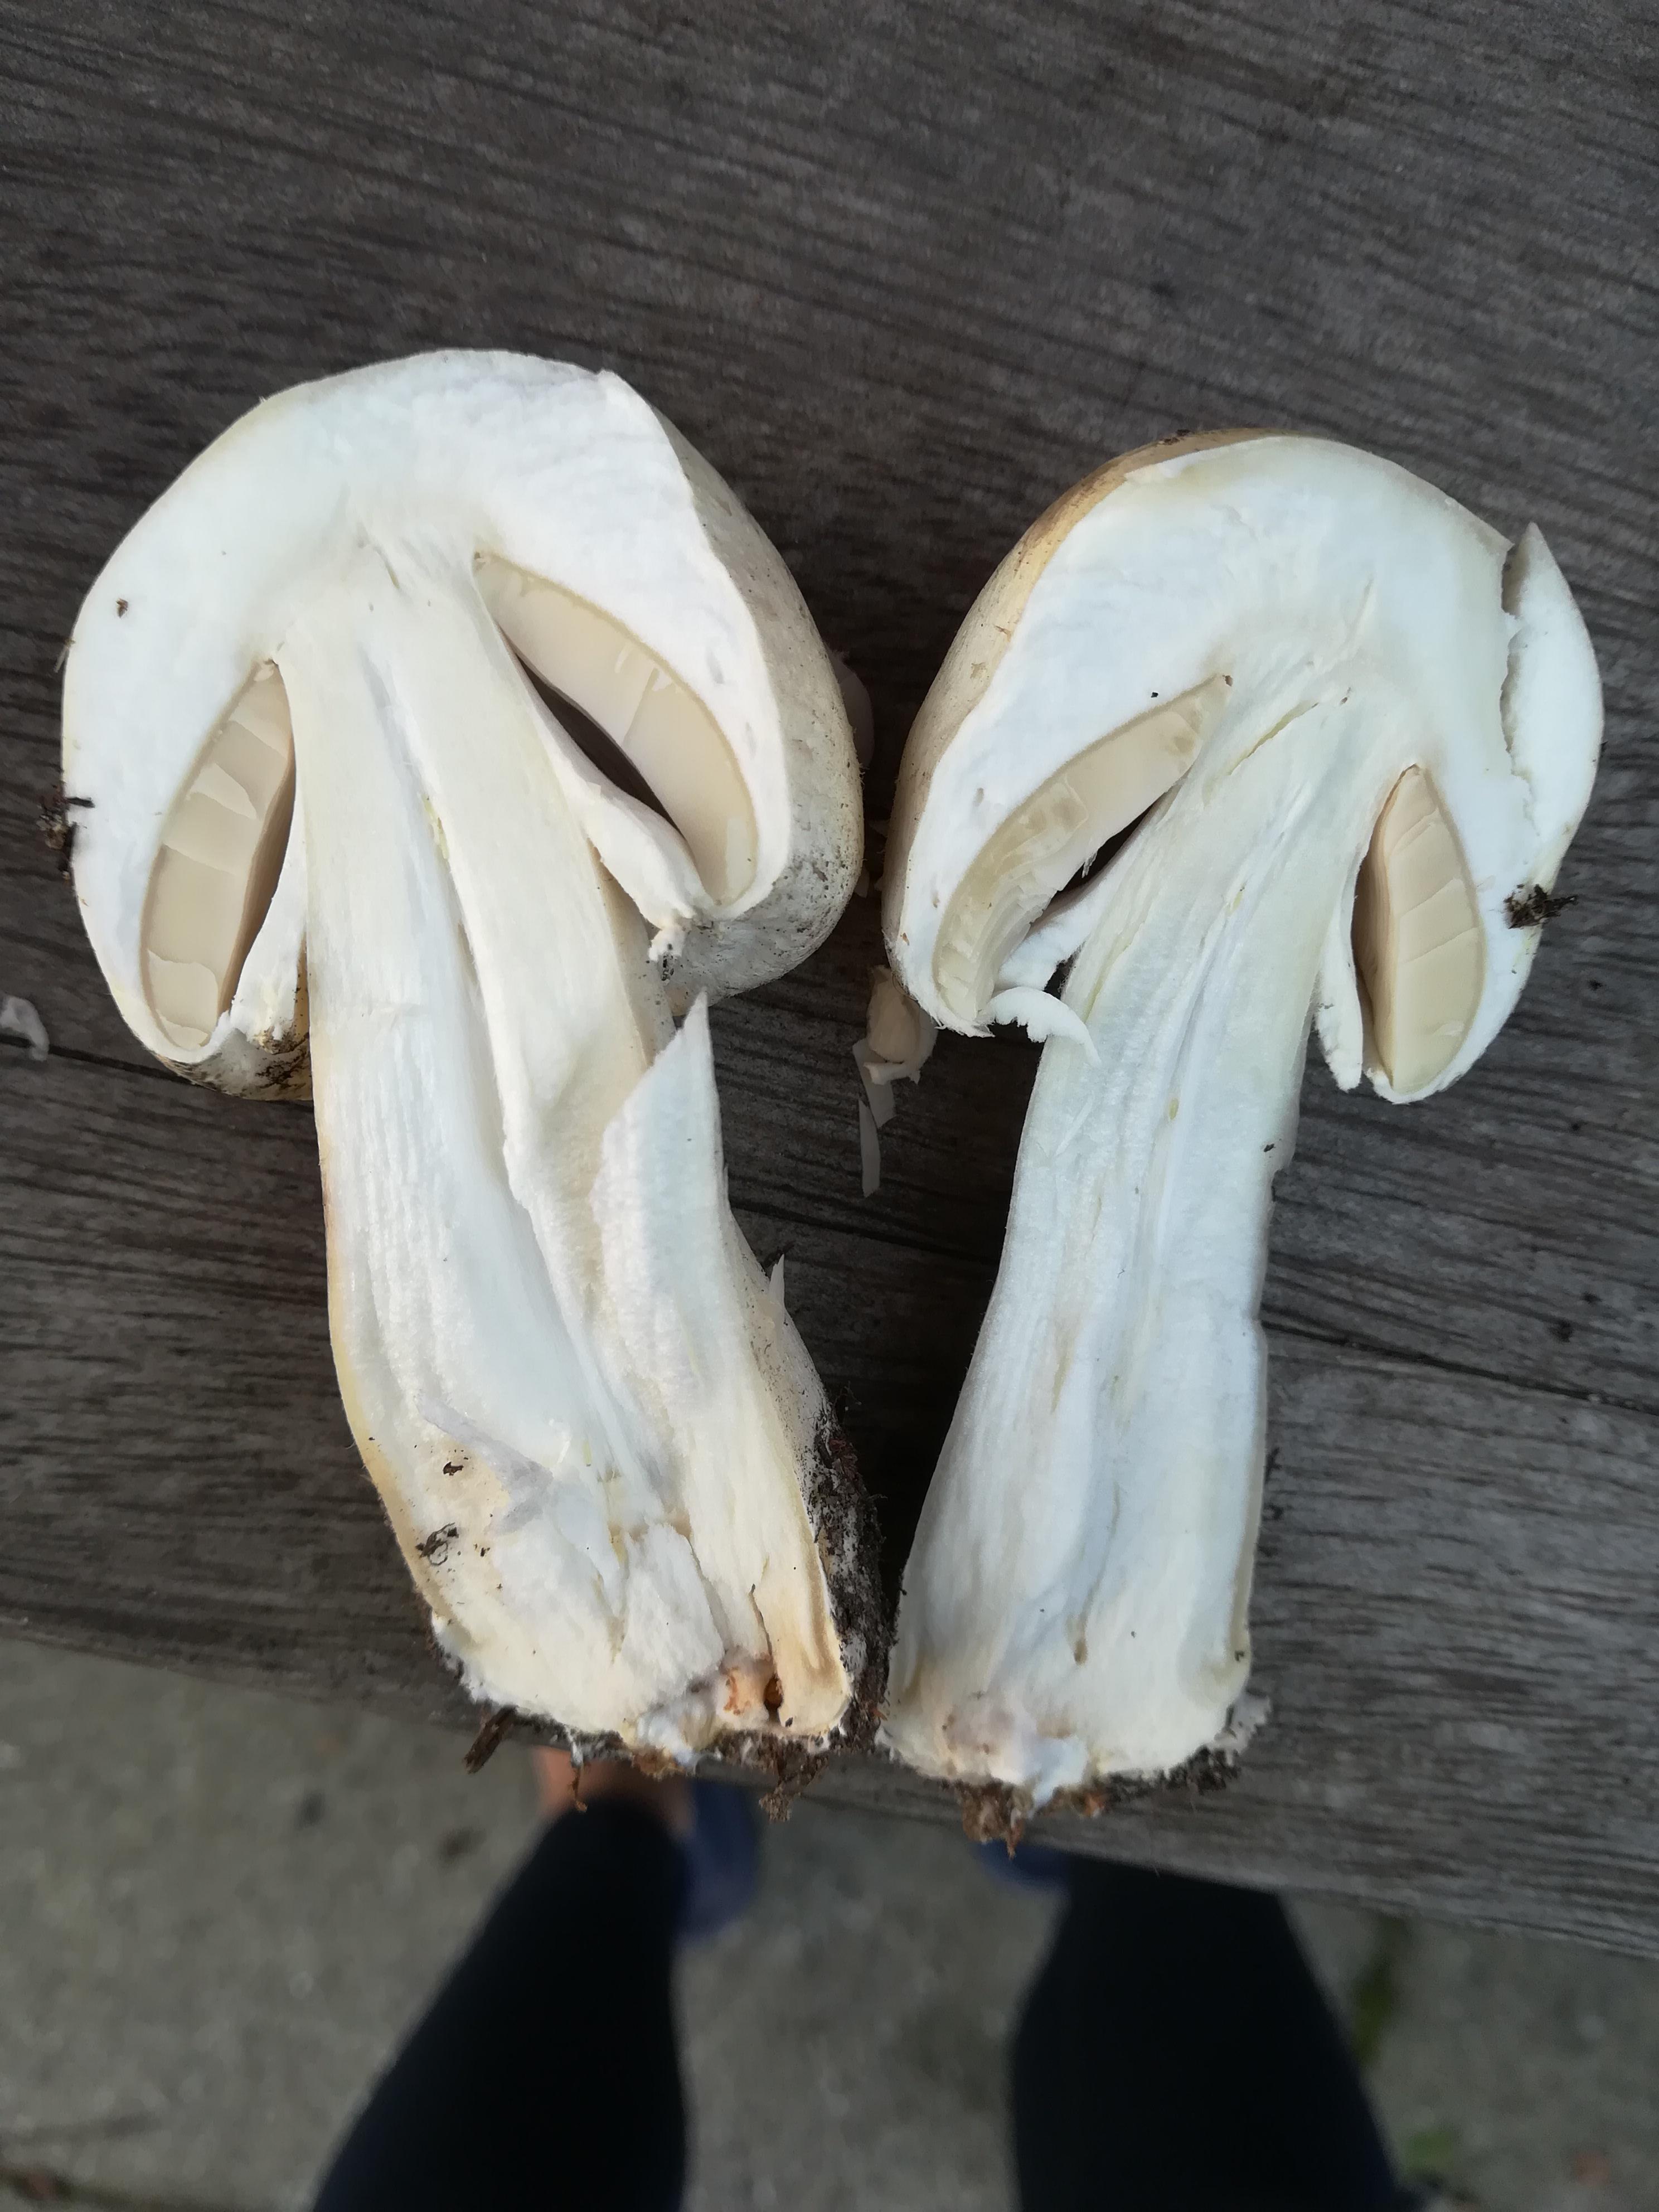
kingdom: Fungi
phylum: Basidiomycota
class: Agaricomycetes
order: Agaricales
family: Agaricaceae
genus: Agaricus
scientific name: Agaricus
